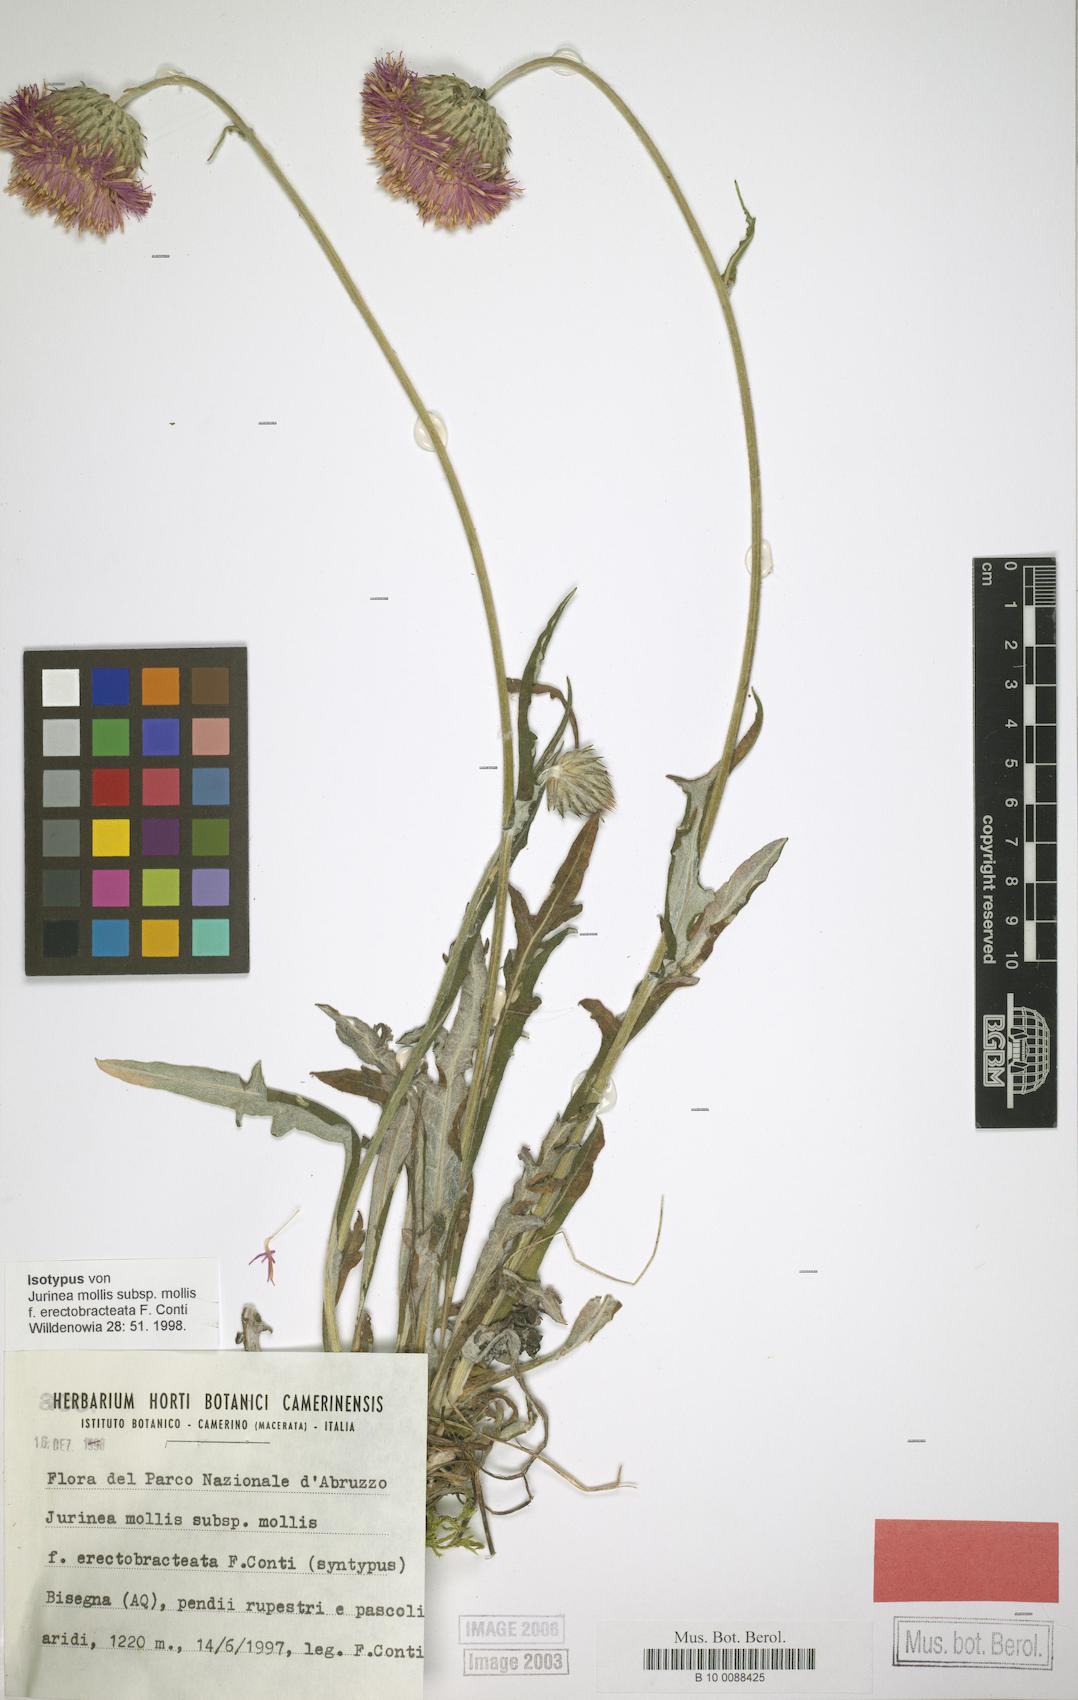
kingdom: Plantae
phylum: Tracheophyta
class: Magnoliopsida
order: Asterales
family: Asteraceae
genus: Jurinea
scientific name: Jurinea mollis
